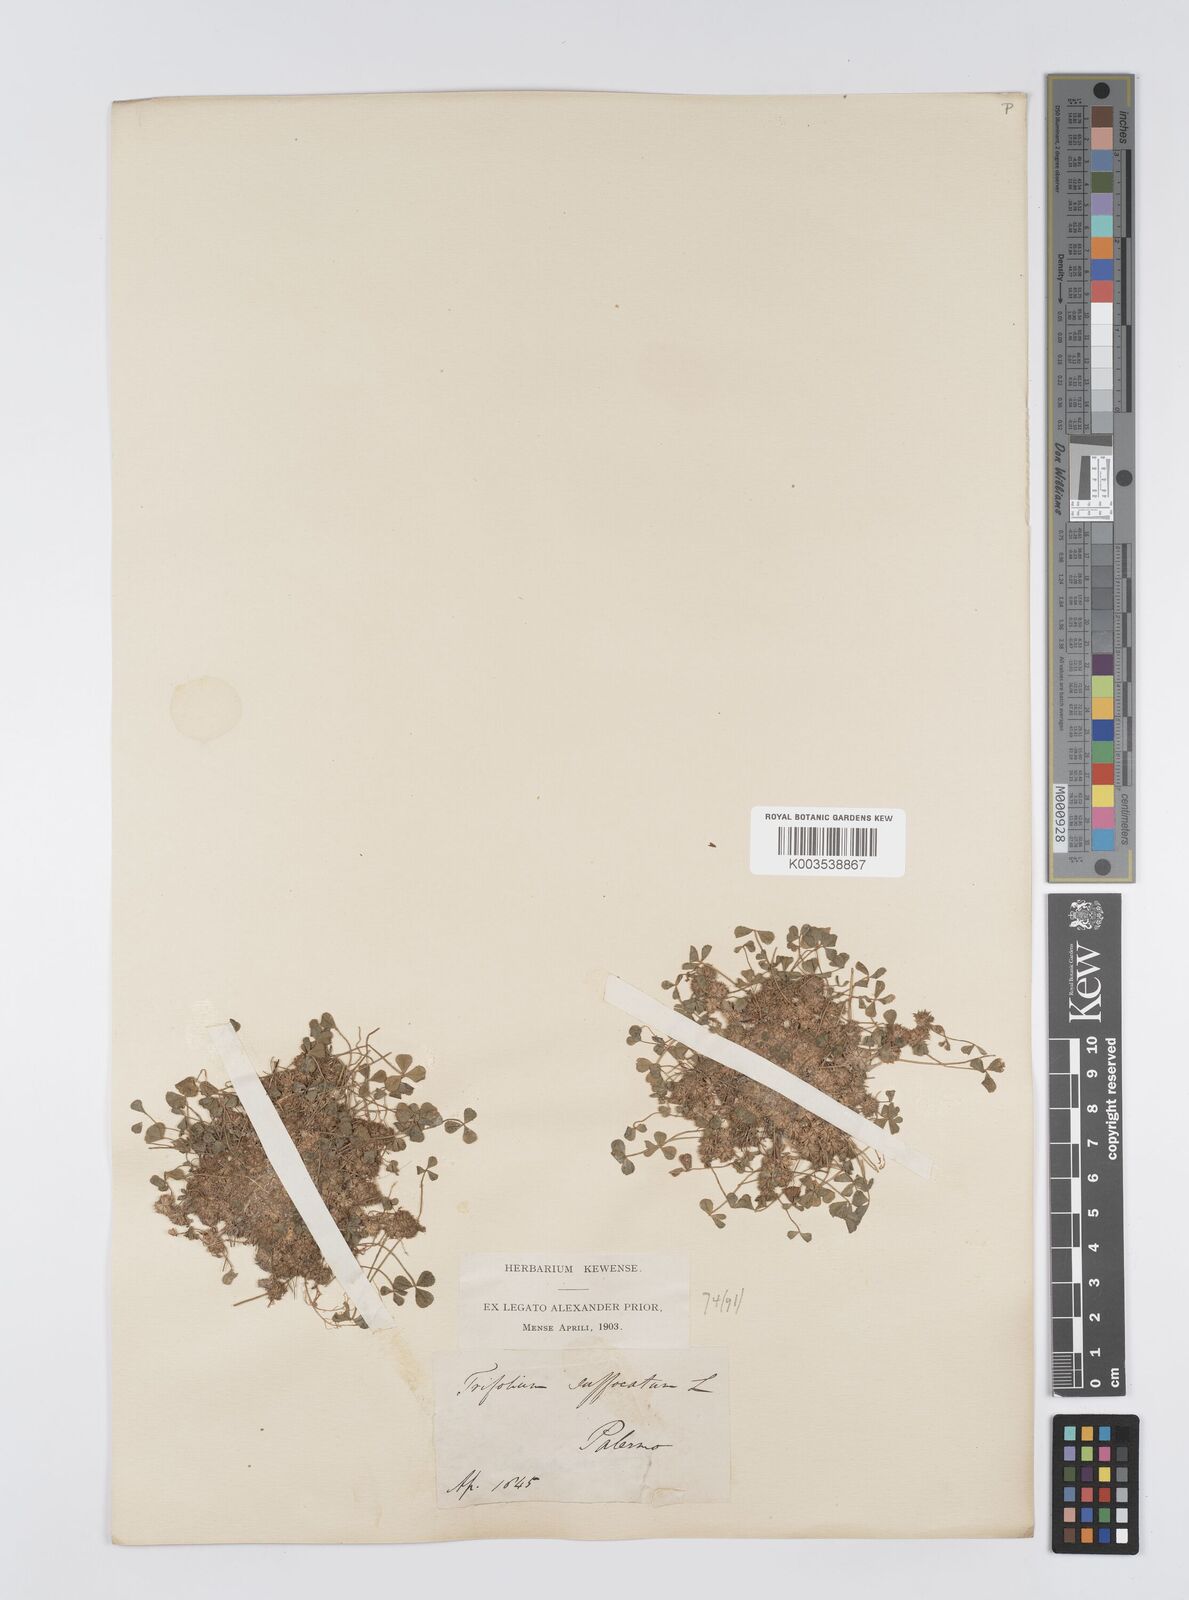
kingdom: Plantae
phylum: Tracheophyta
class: Magnoliopsida
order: Fabales
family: Fabaceae
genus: Trifolium
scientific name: Trifolium suffocatum
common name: Suffocated clover
